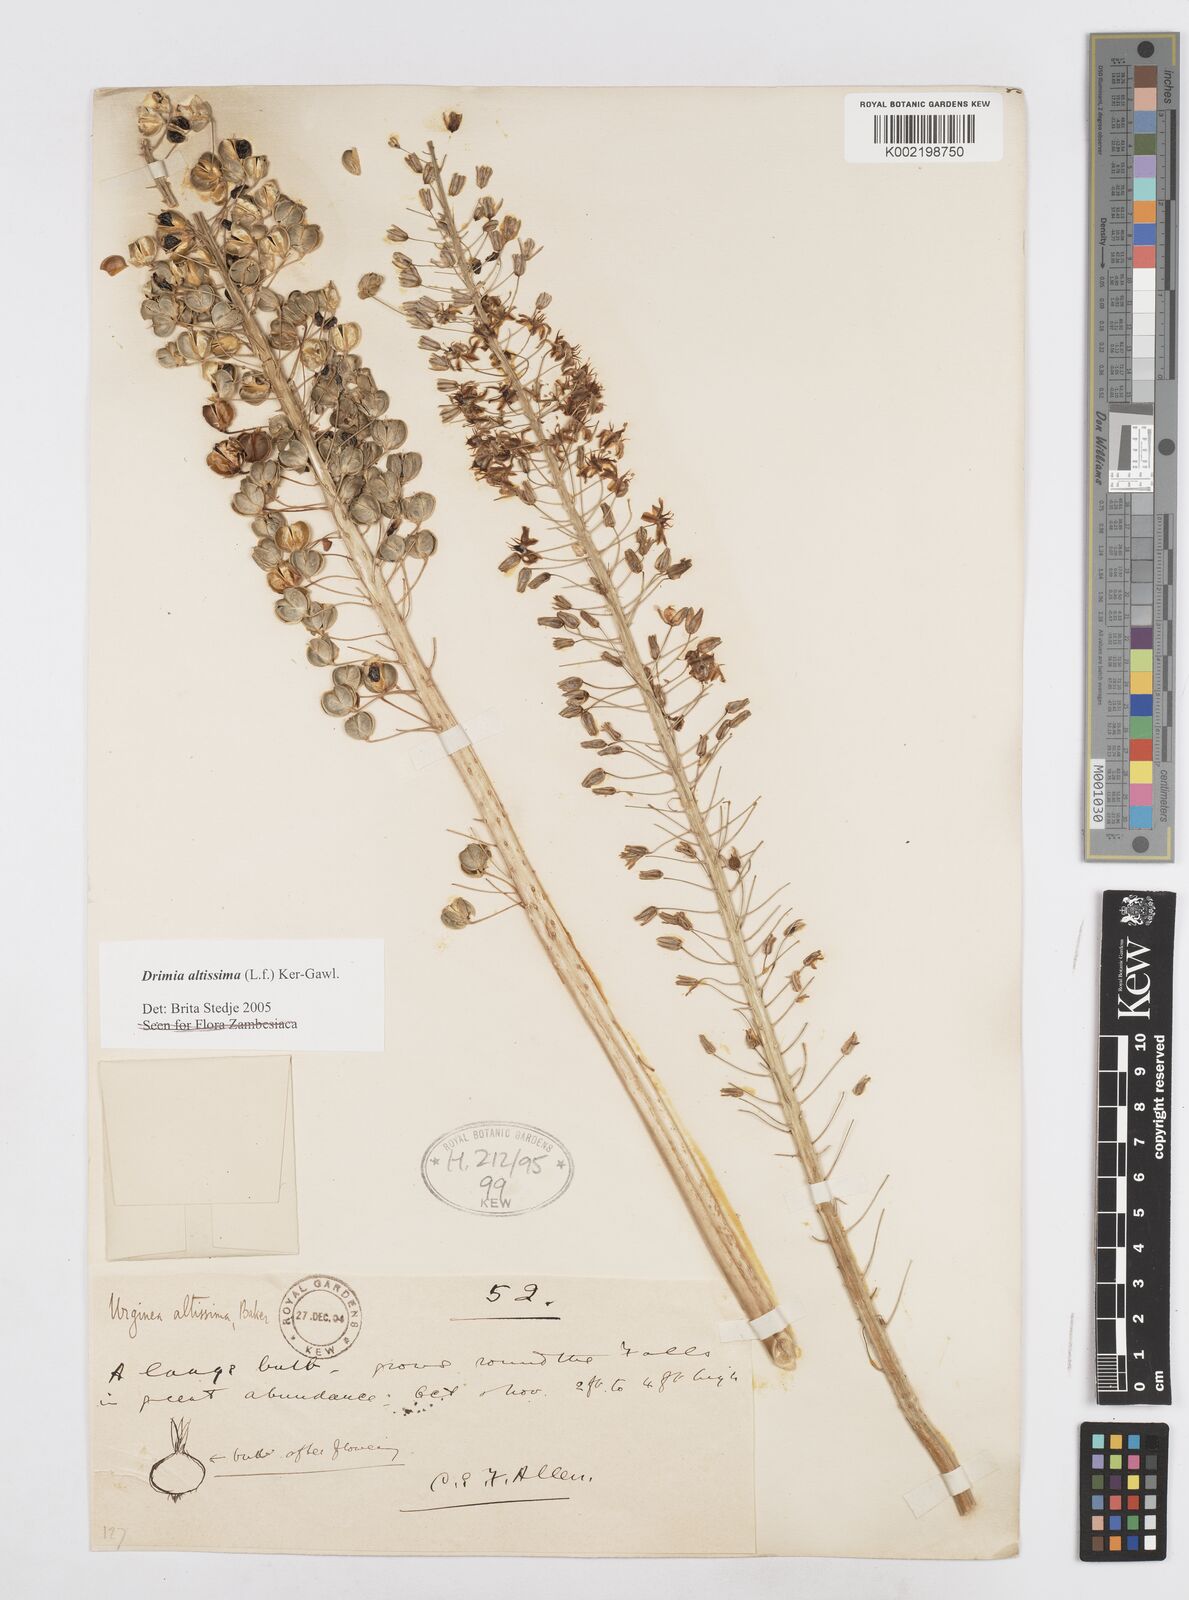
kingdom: Plantae
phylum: Tracheophyta
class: Liliopsida
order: Asparagales
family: Asparagaceae
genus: Drimia
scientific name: Drimia altissima
